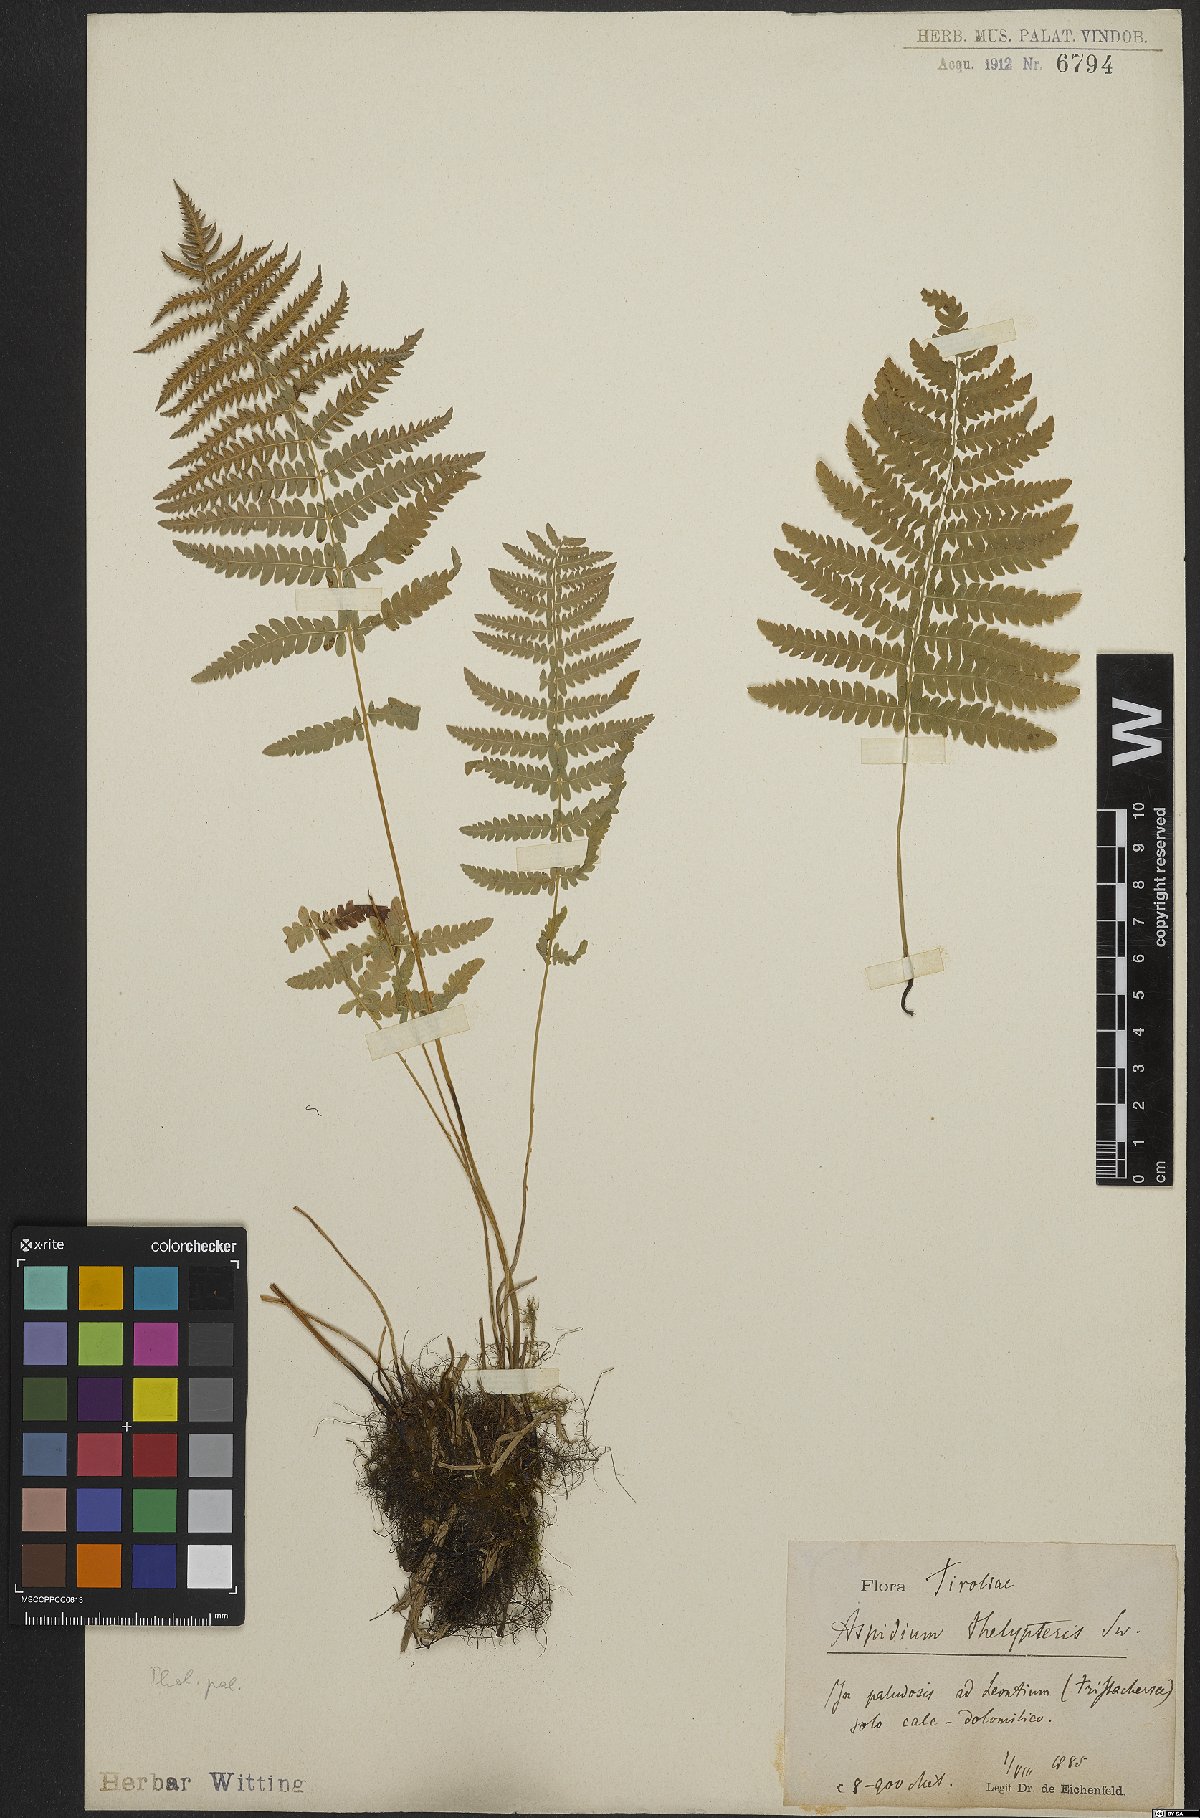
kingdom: Plantae
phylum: Tracheophyta
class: Polypodiopsida
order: Polypodiales
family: Thelypteridaceae
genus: Thelypteris
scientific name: Thelypteris palustris
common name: Marsh fern
